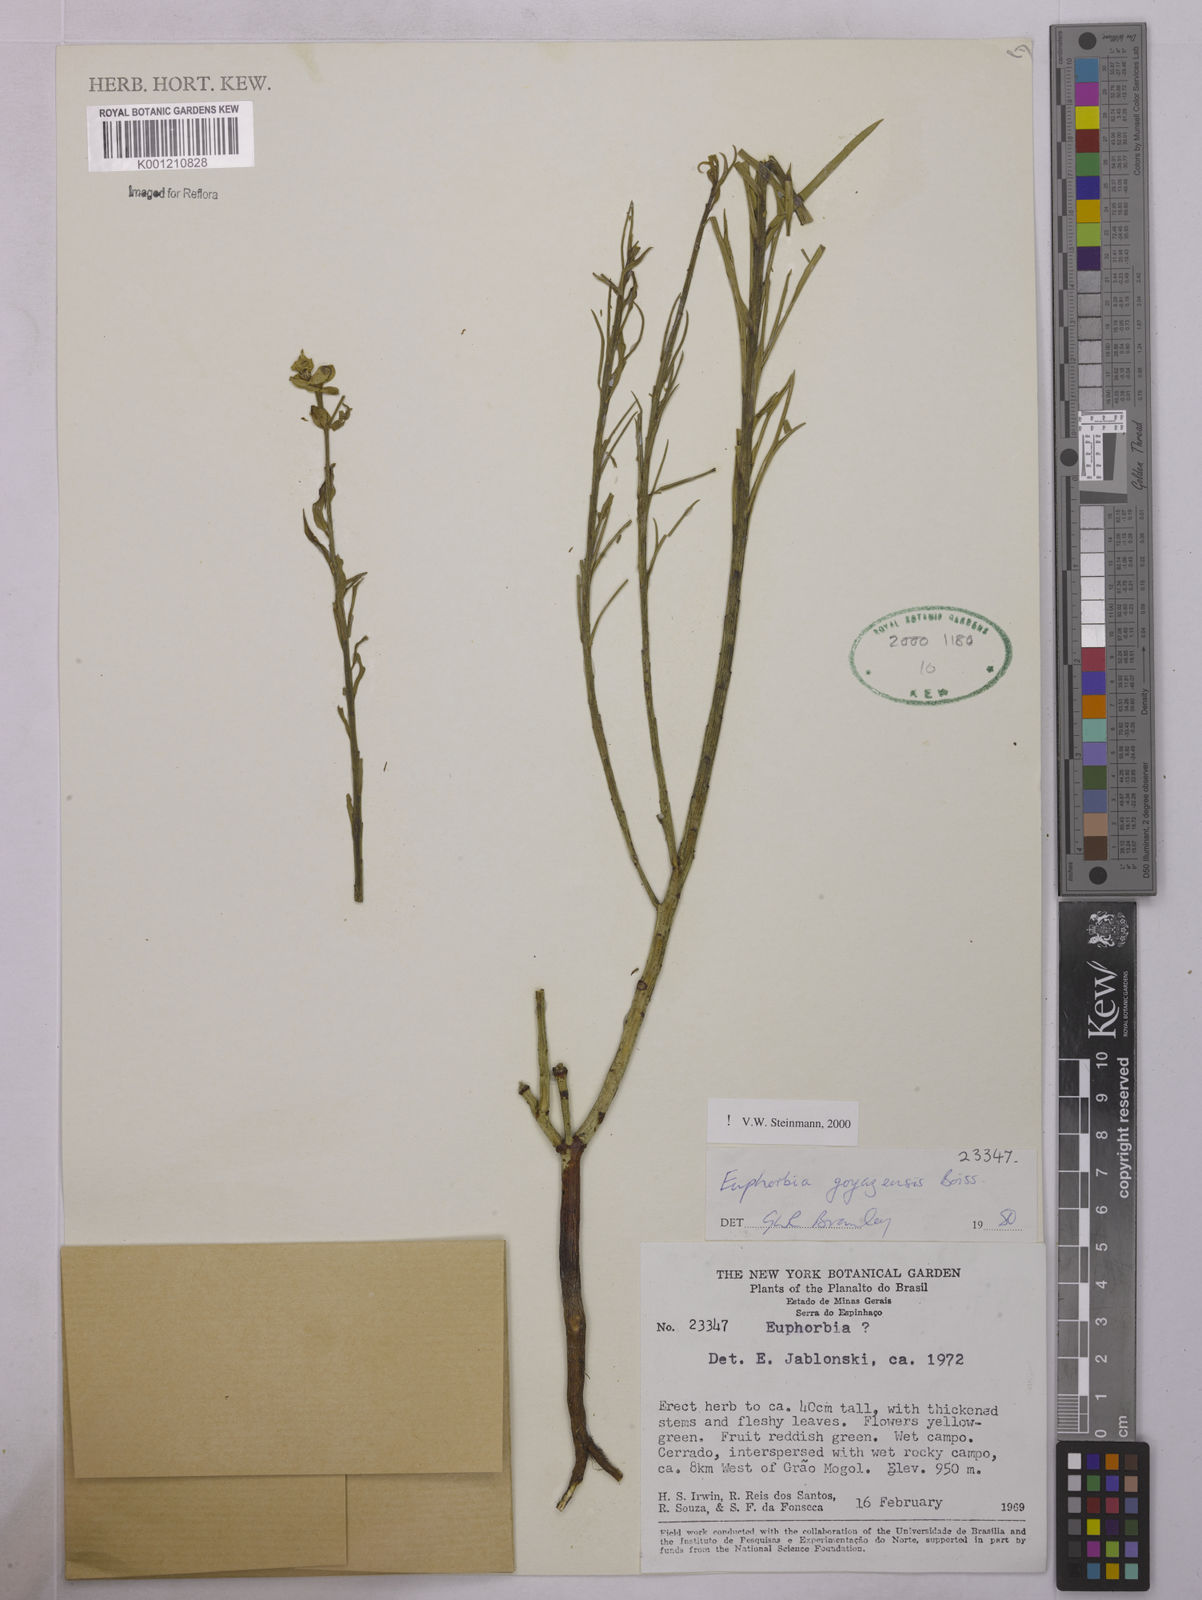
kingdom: Plantae
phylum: Tracheophyta
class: Magnoliopsida
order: Malpighiales
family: Euphorbiaceae
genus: Euphorbia
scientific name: Euphorbia goyazensis
